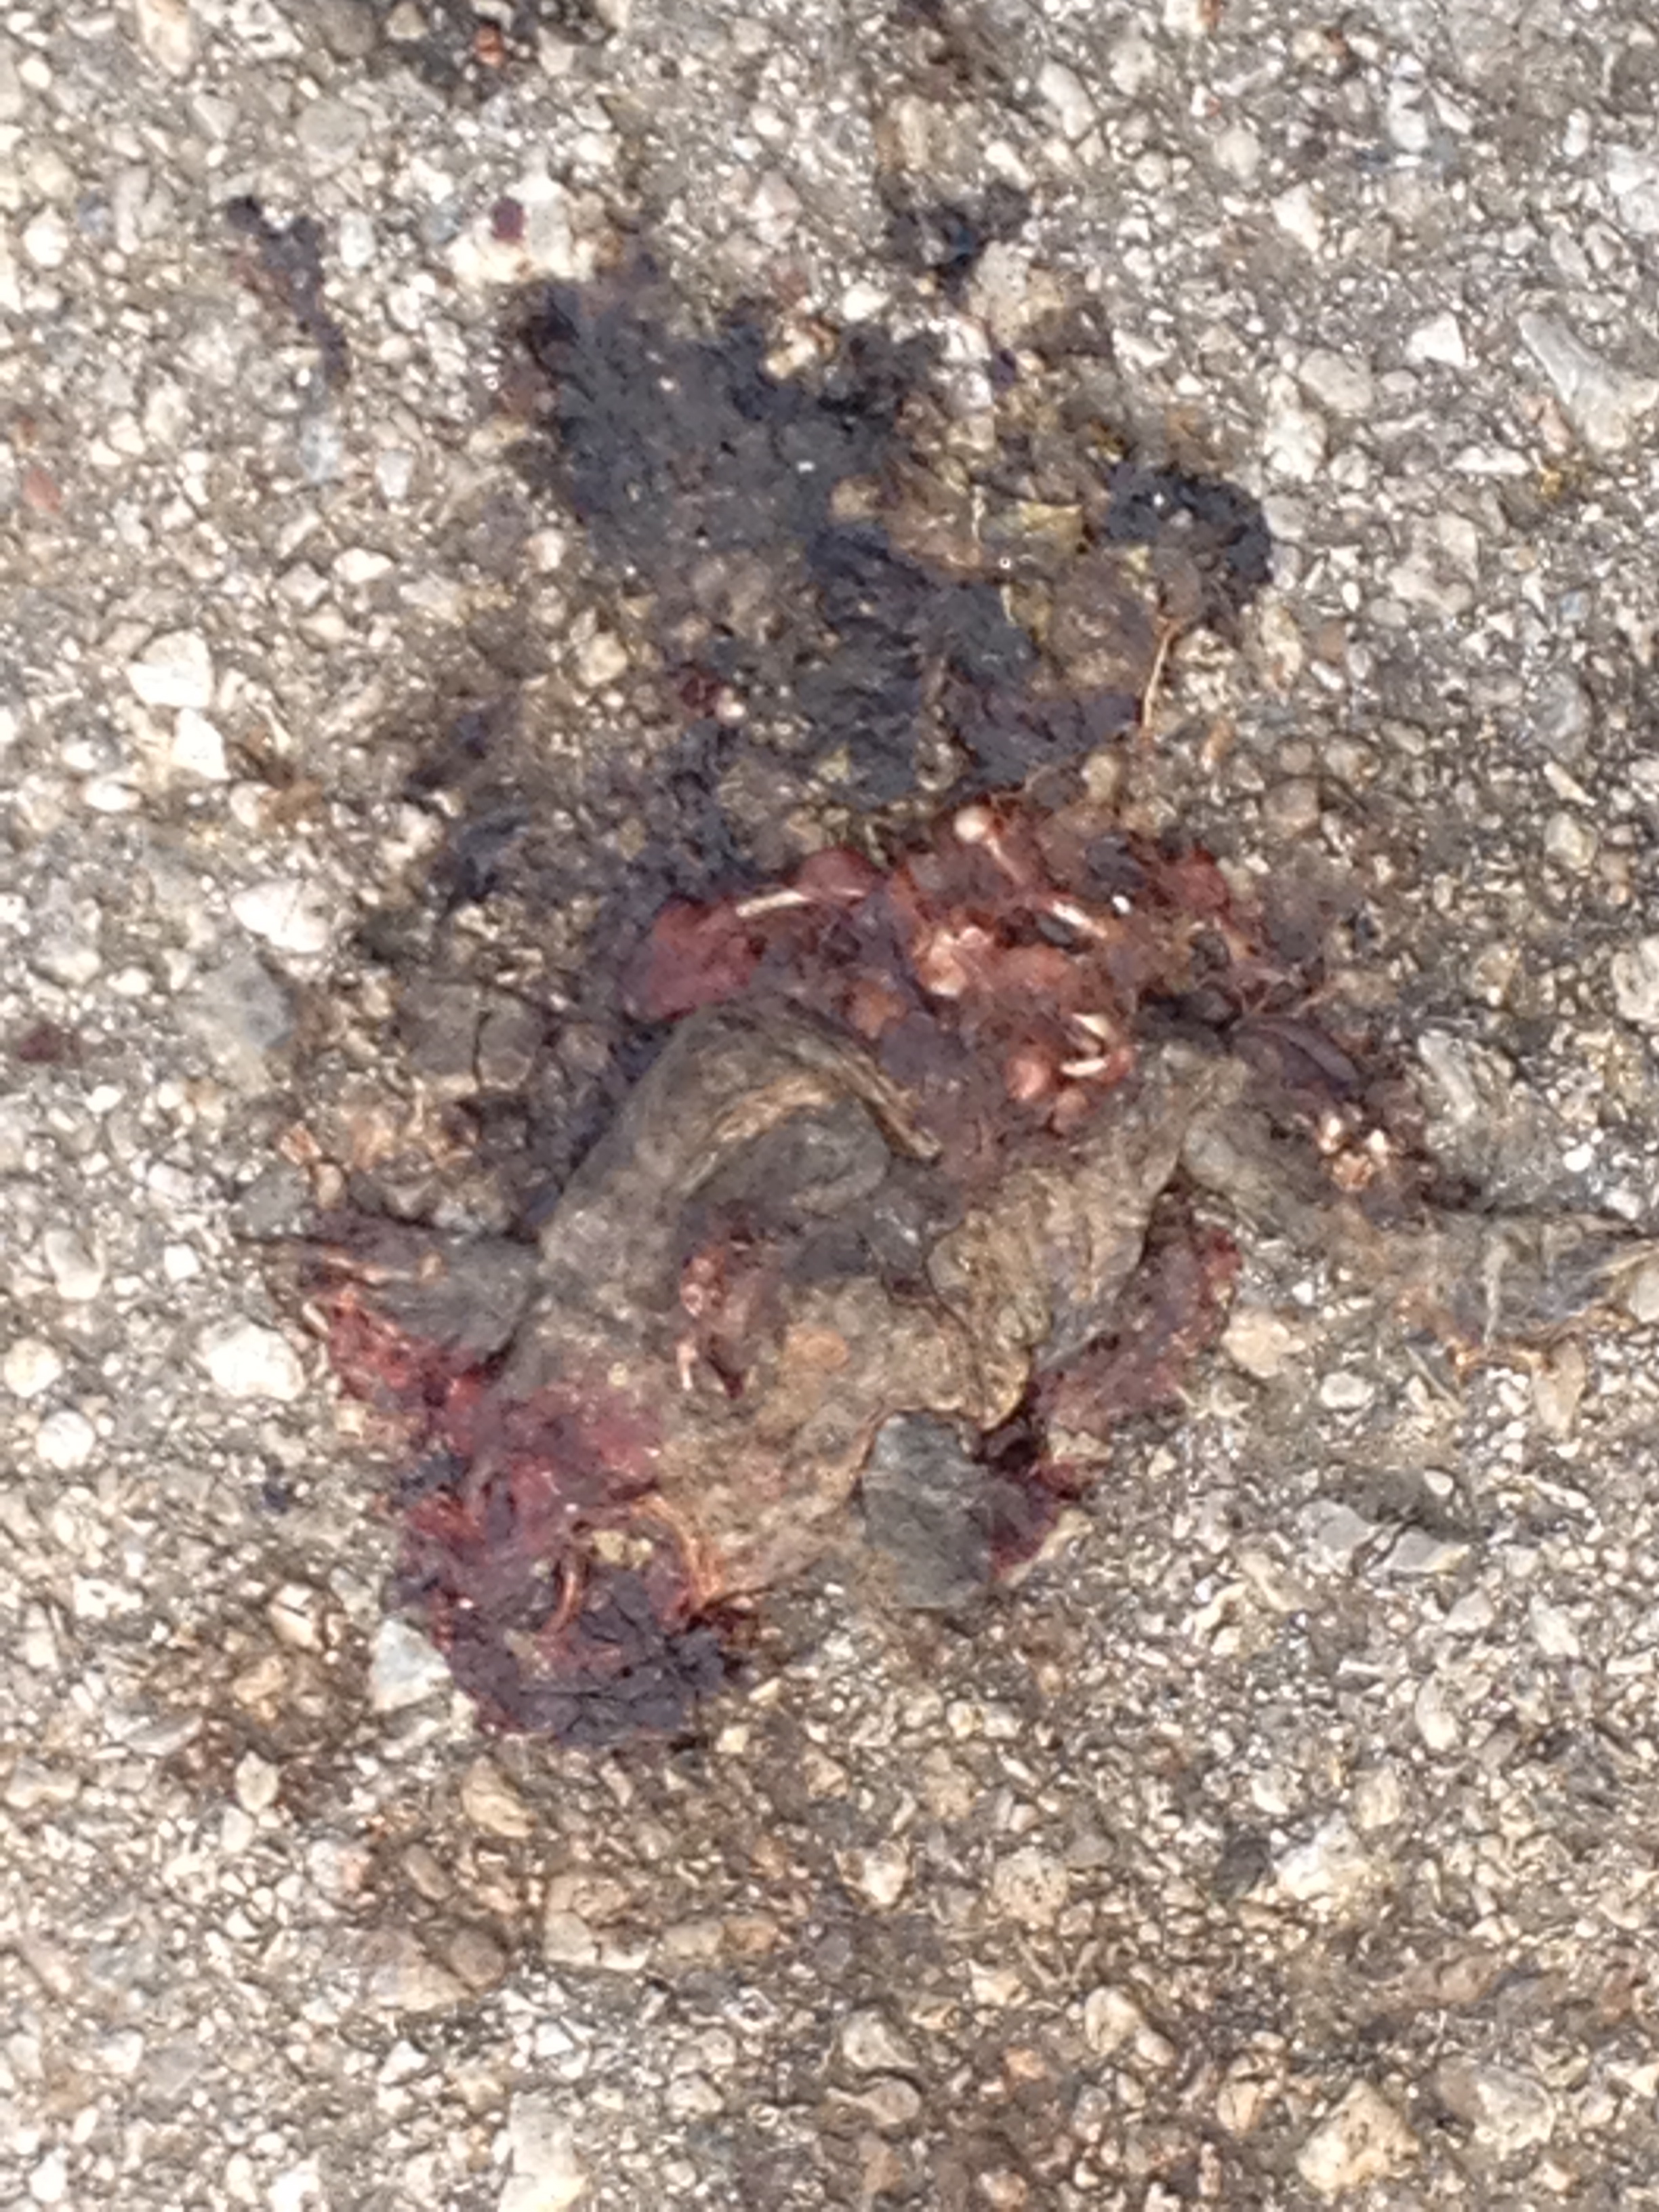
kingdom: Animalia
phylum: Chordata
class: Amphibia
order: Anura
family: Bufonidae
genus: Bufo
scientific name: Bufo bufo
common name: Common toad
